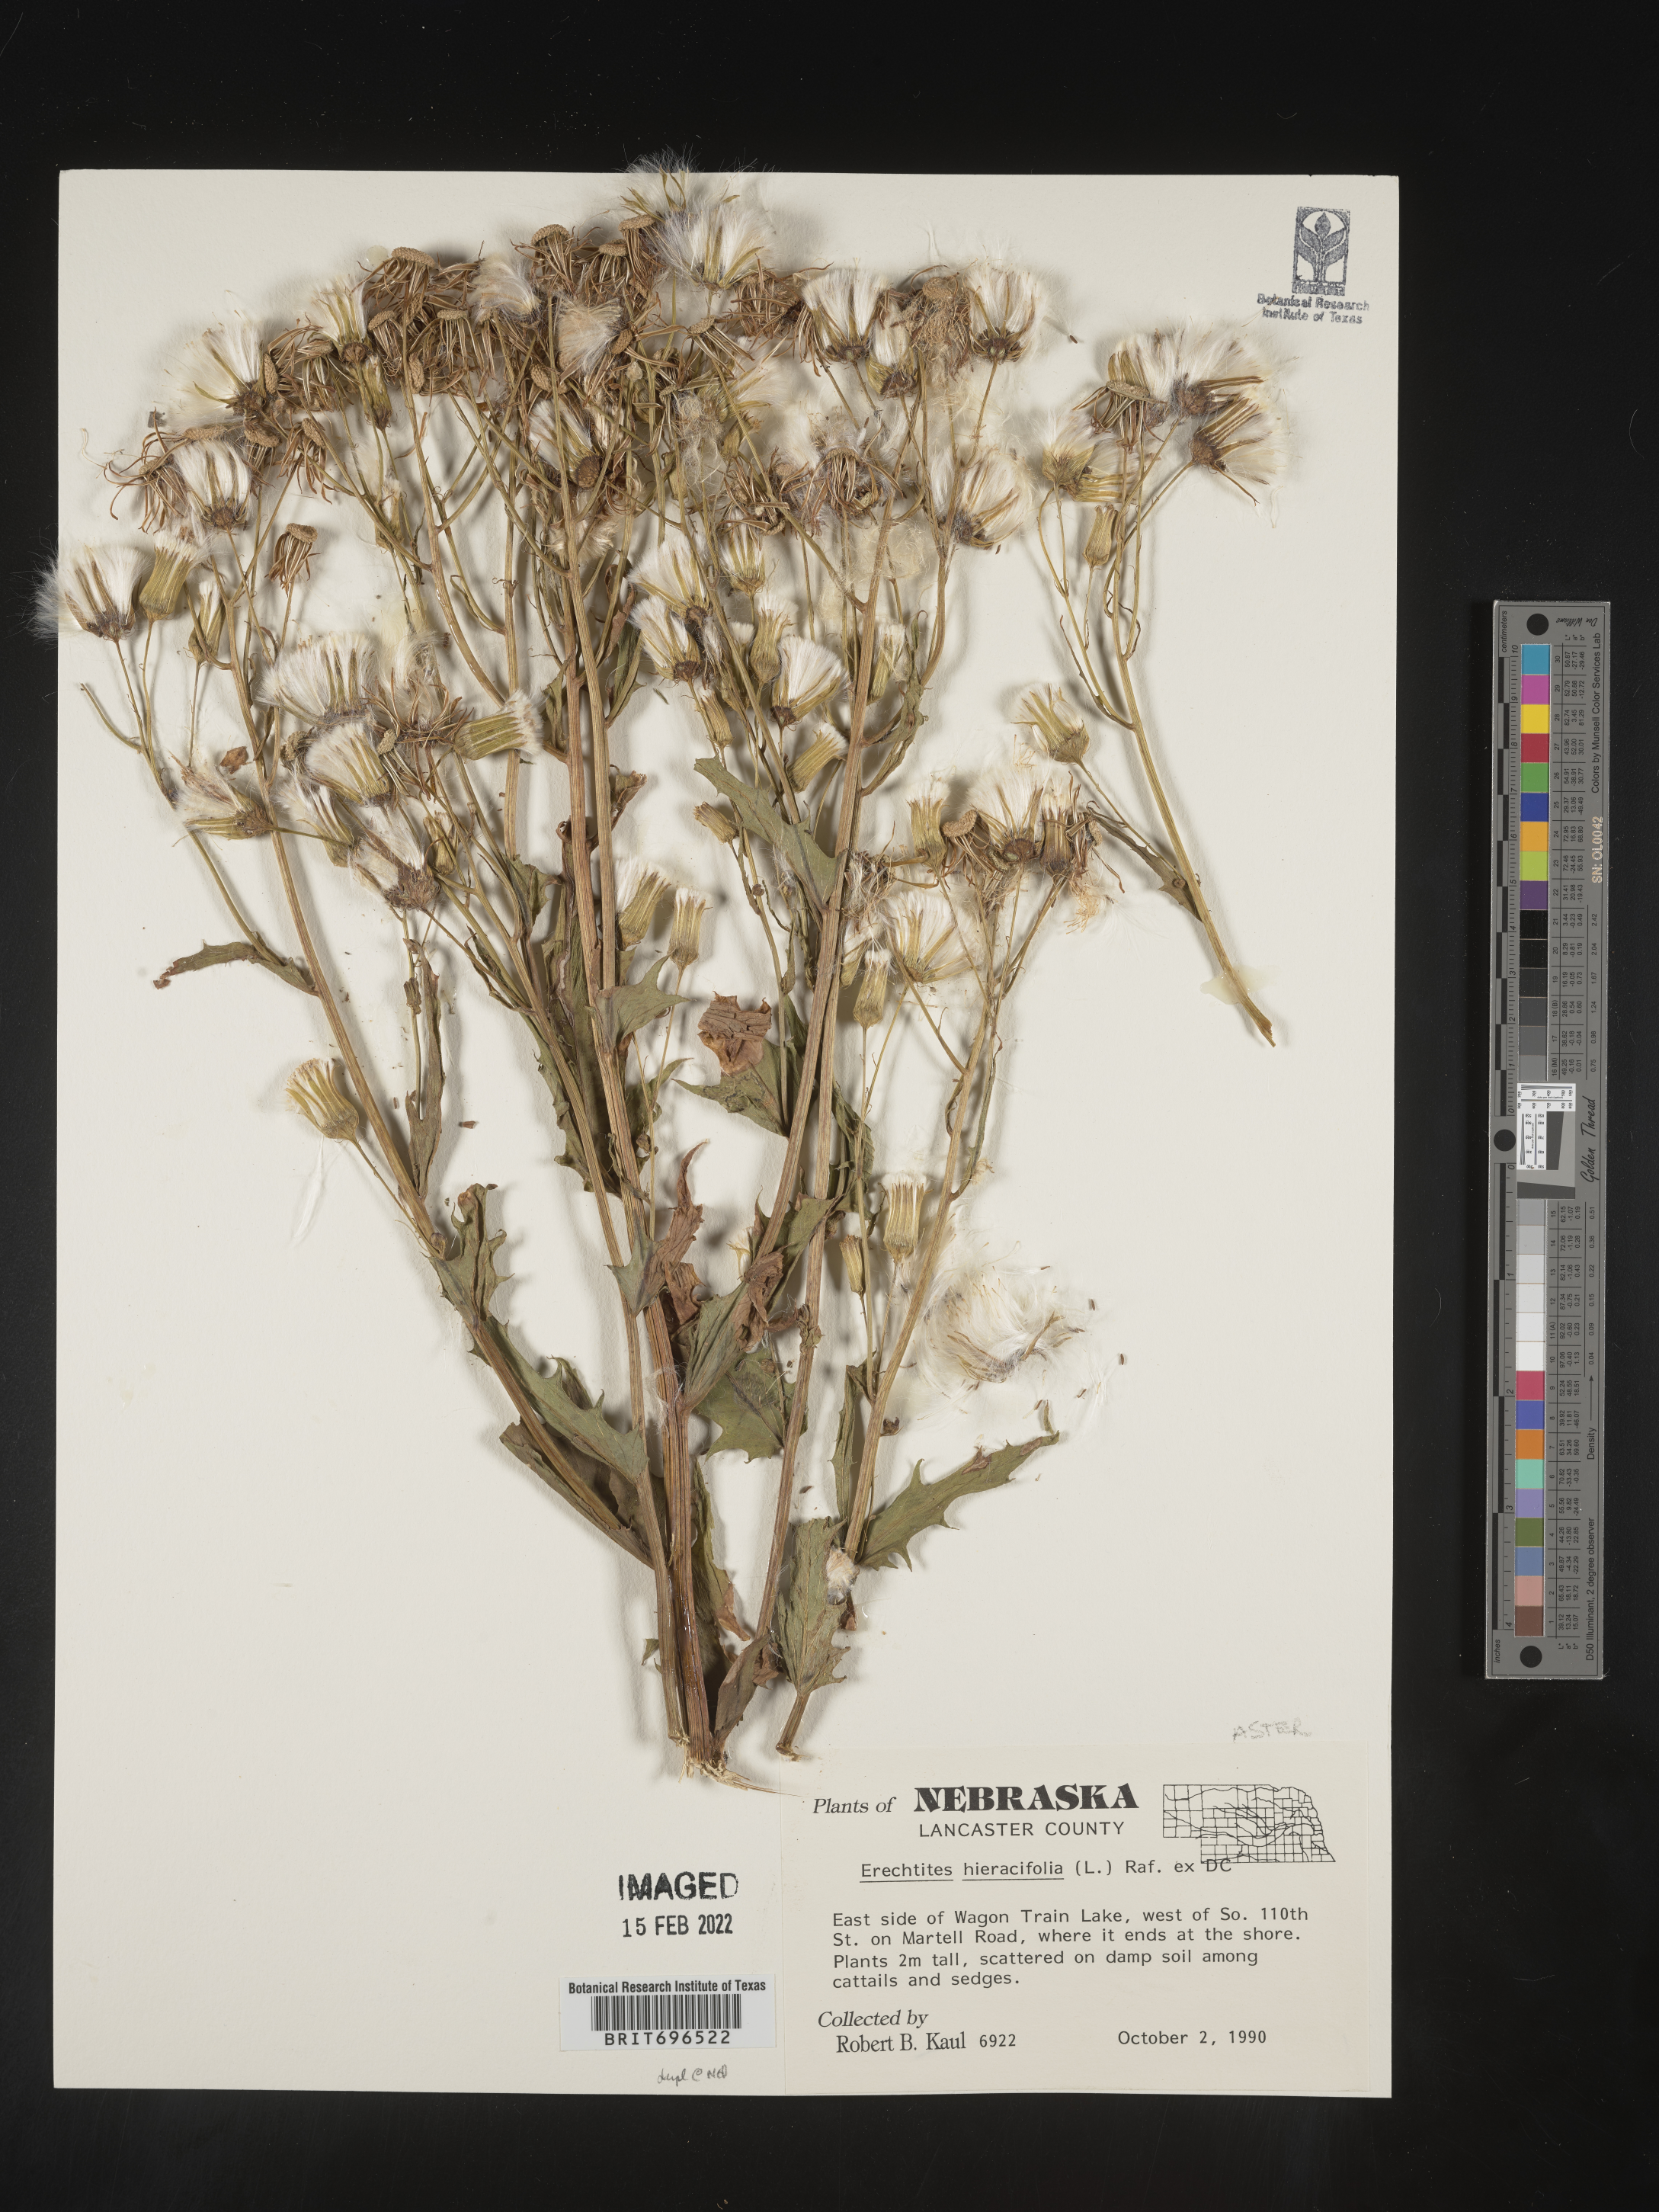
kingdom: Plantae
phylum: Tracheophyta
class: Magnoliopsida
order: Asterales
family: Asteraceae
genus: Erechtites
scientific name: Erechtites hieraciifolius
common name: American burnweed
